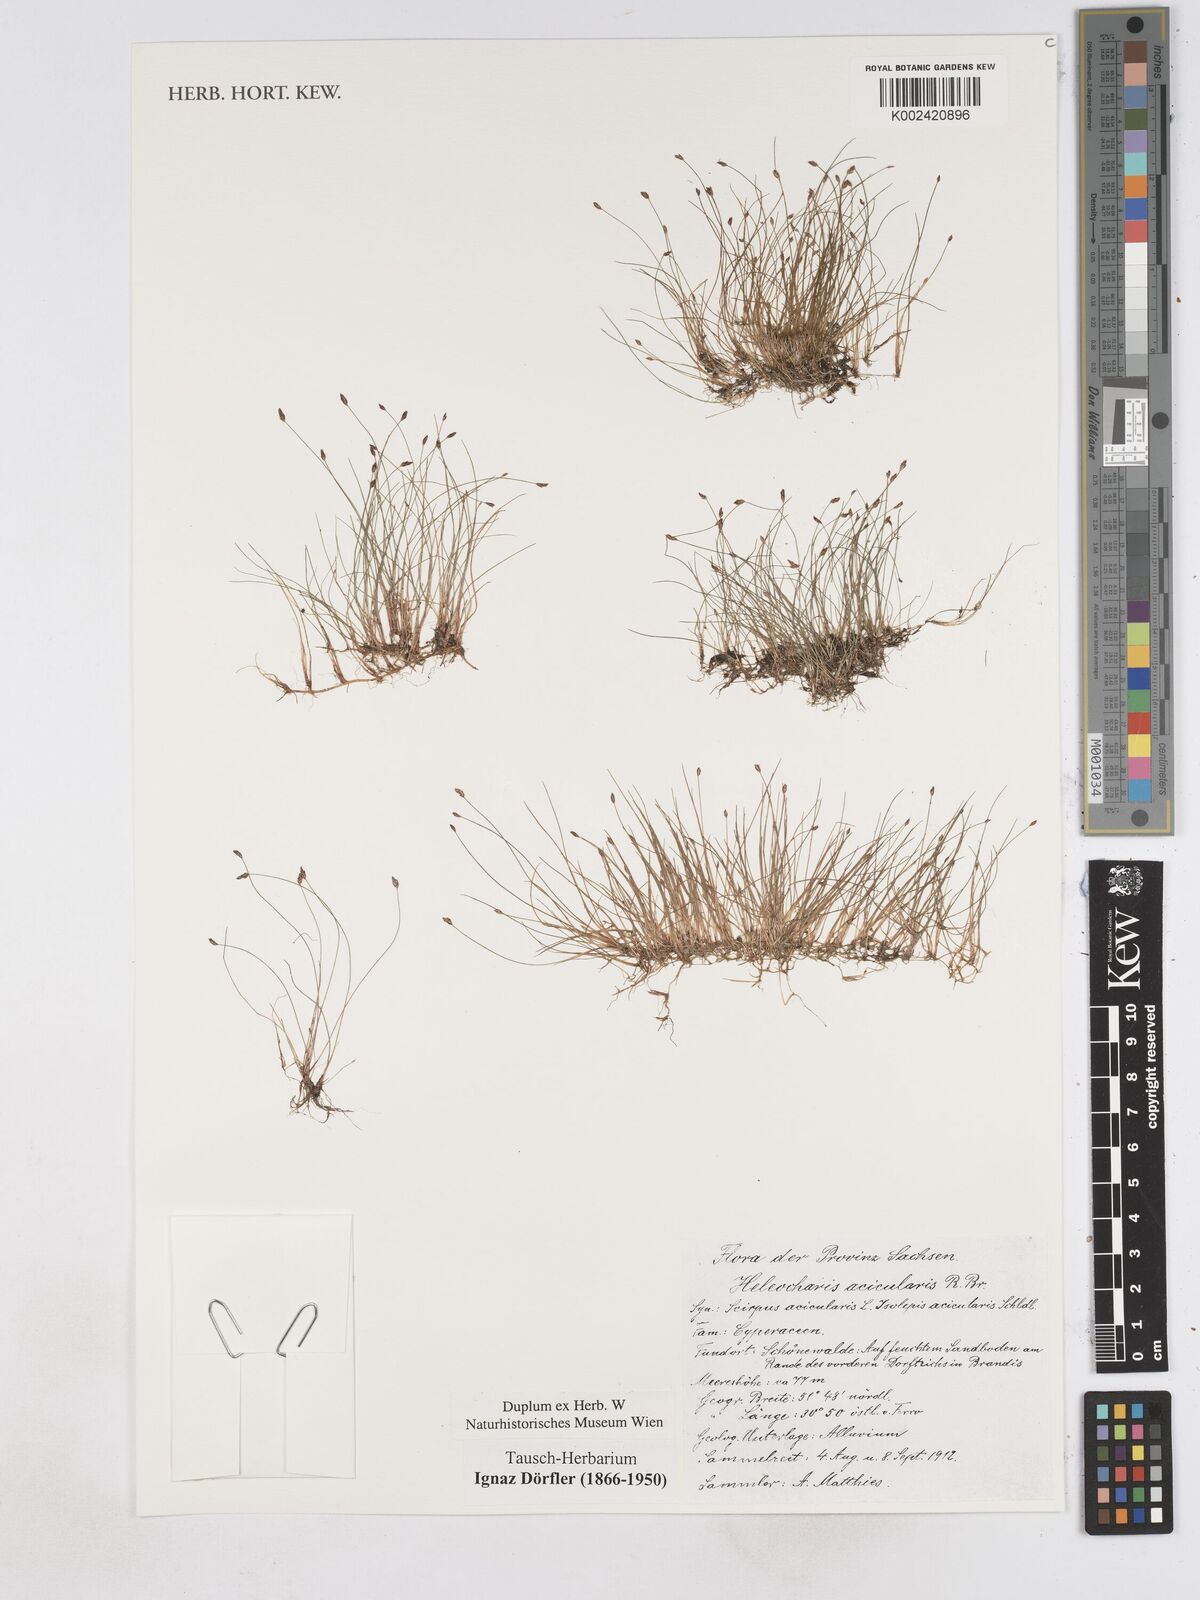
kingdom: Plantae
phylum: Tracheophyta
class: Liliopsida
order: Poales
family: Cyperaceae
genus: Eleocharis
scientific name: Eleocharis acicularis
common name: Needle spike-rush
